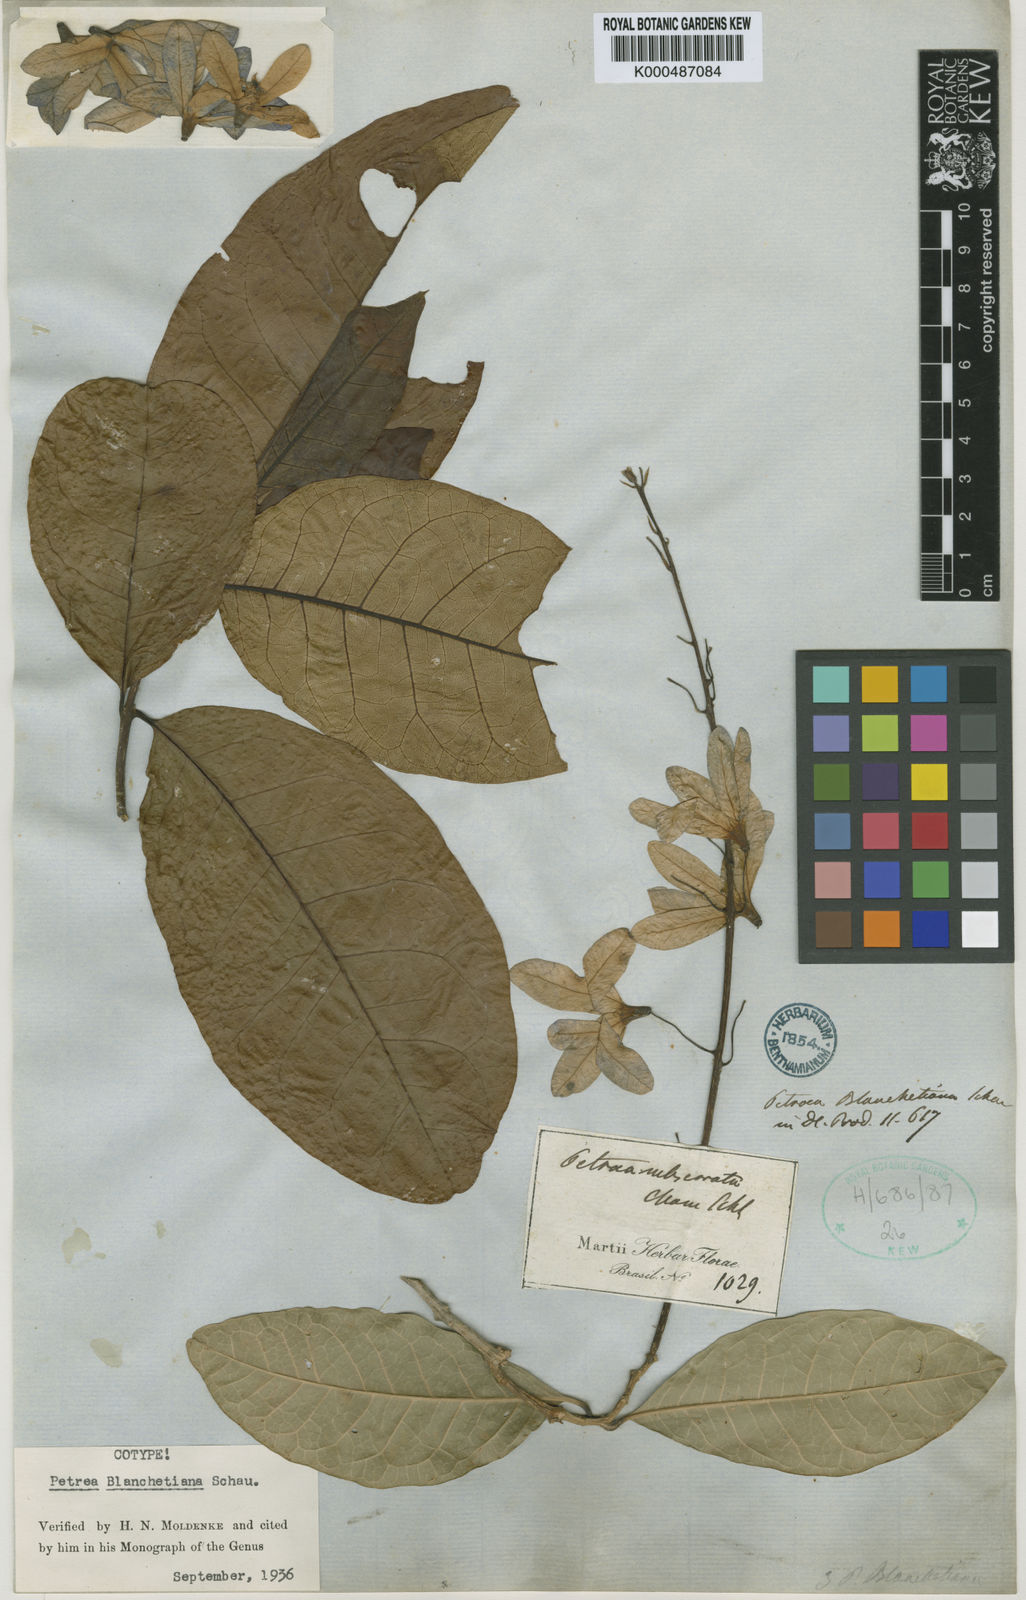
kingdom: Plantae
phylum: Tracheophyta
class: Magnoliopsida
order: Lamiales
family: Verbenaceae
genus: Petrea
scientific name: Petrea blanchetiana
